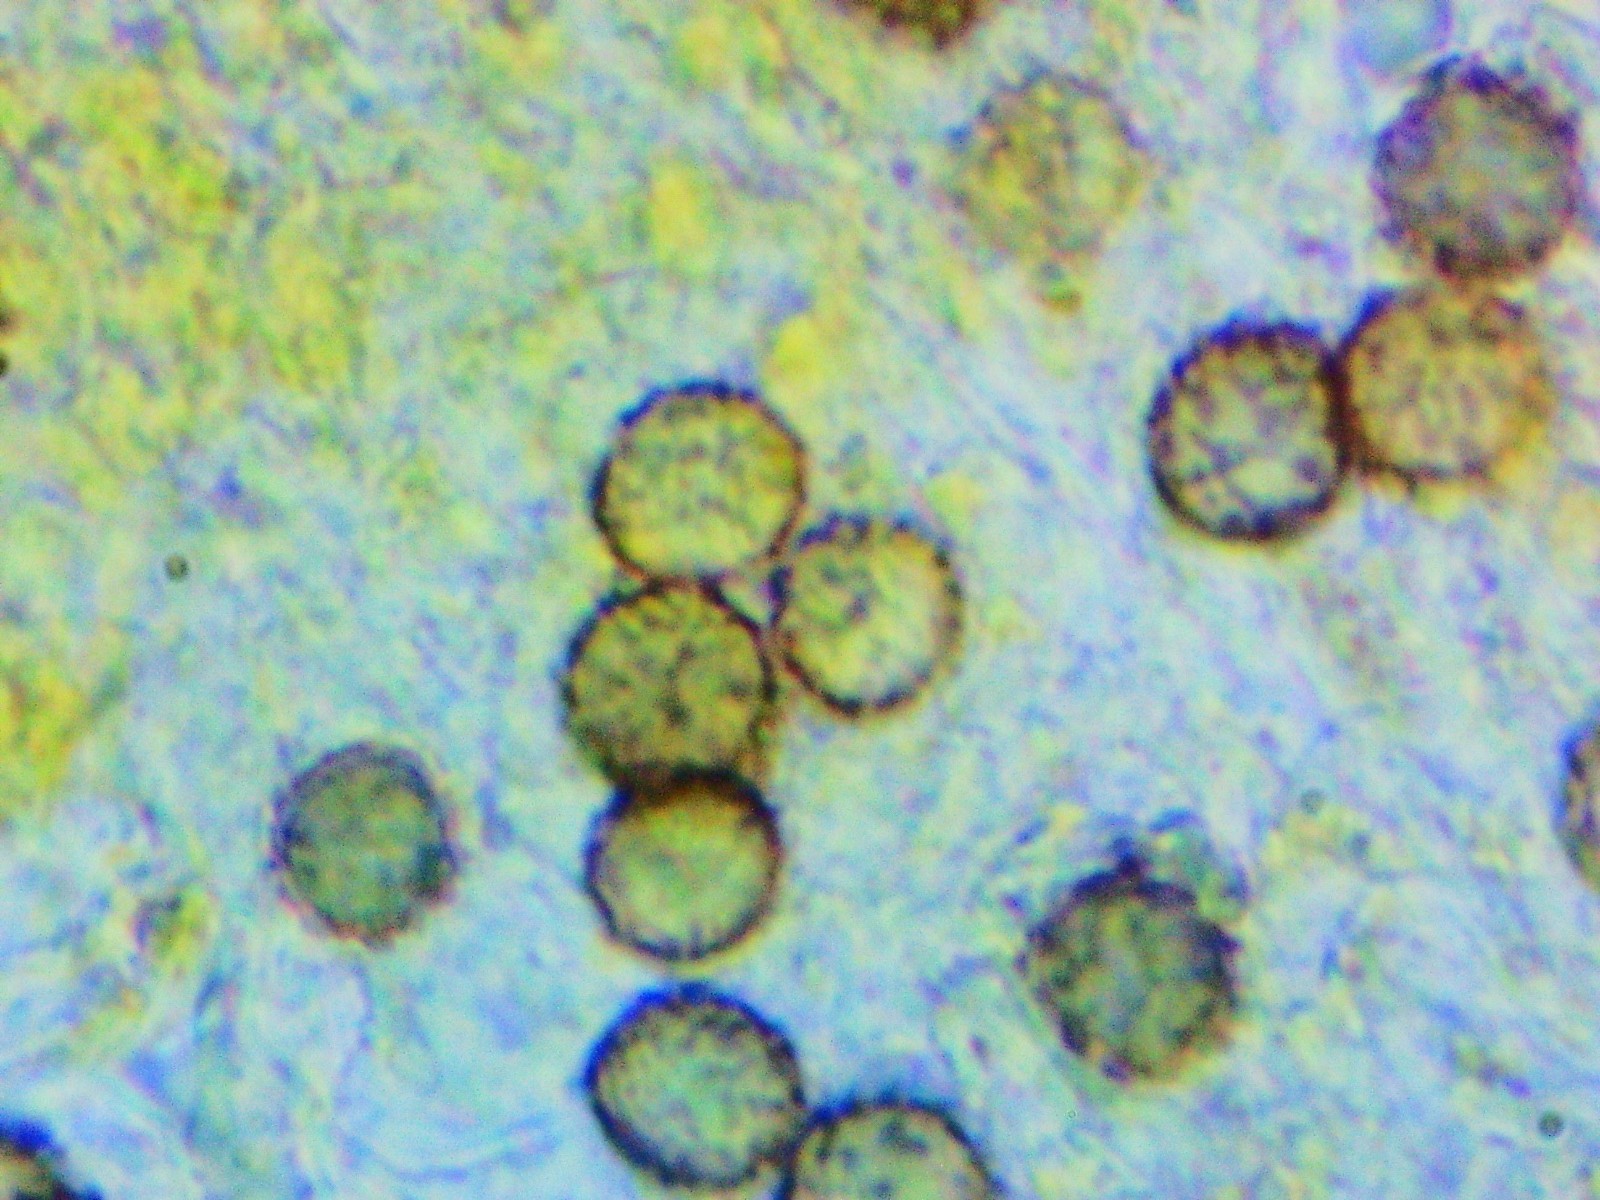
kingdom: Fungi
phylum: Basidiomycota
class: Agaricomycetes
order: Russulales
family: Russulaceae
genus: Russula
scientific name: Russula
